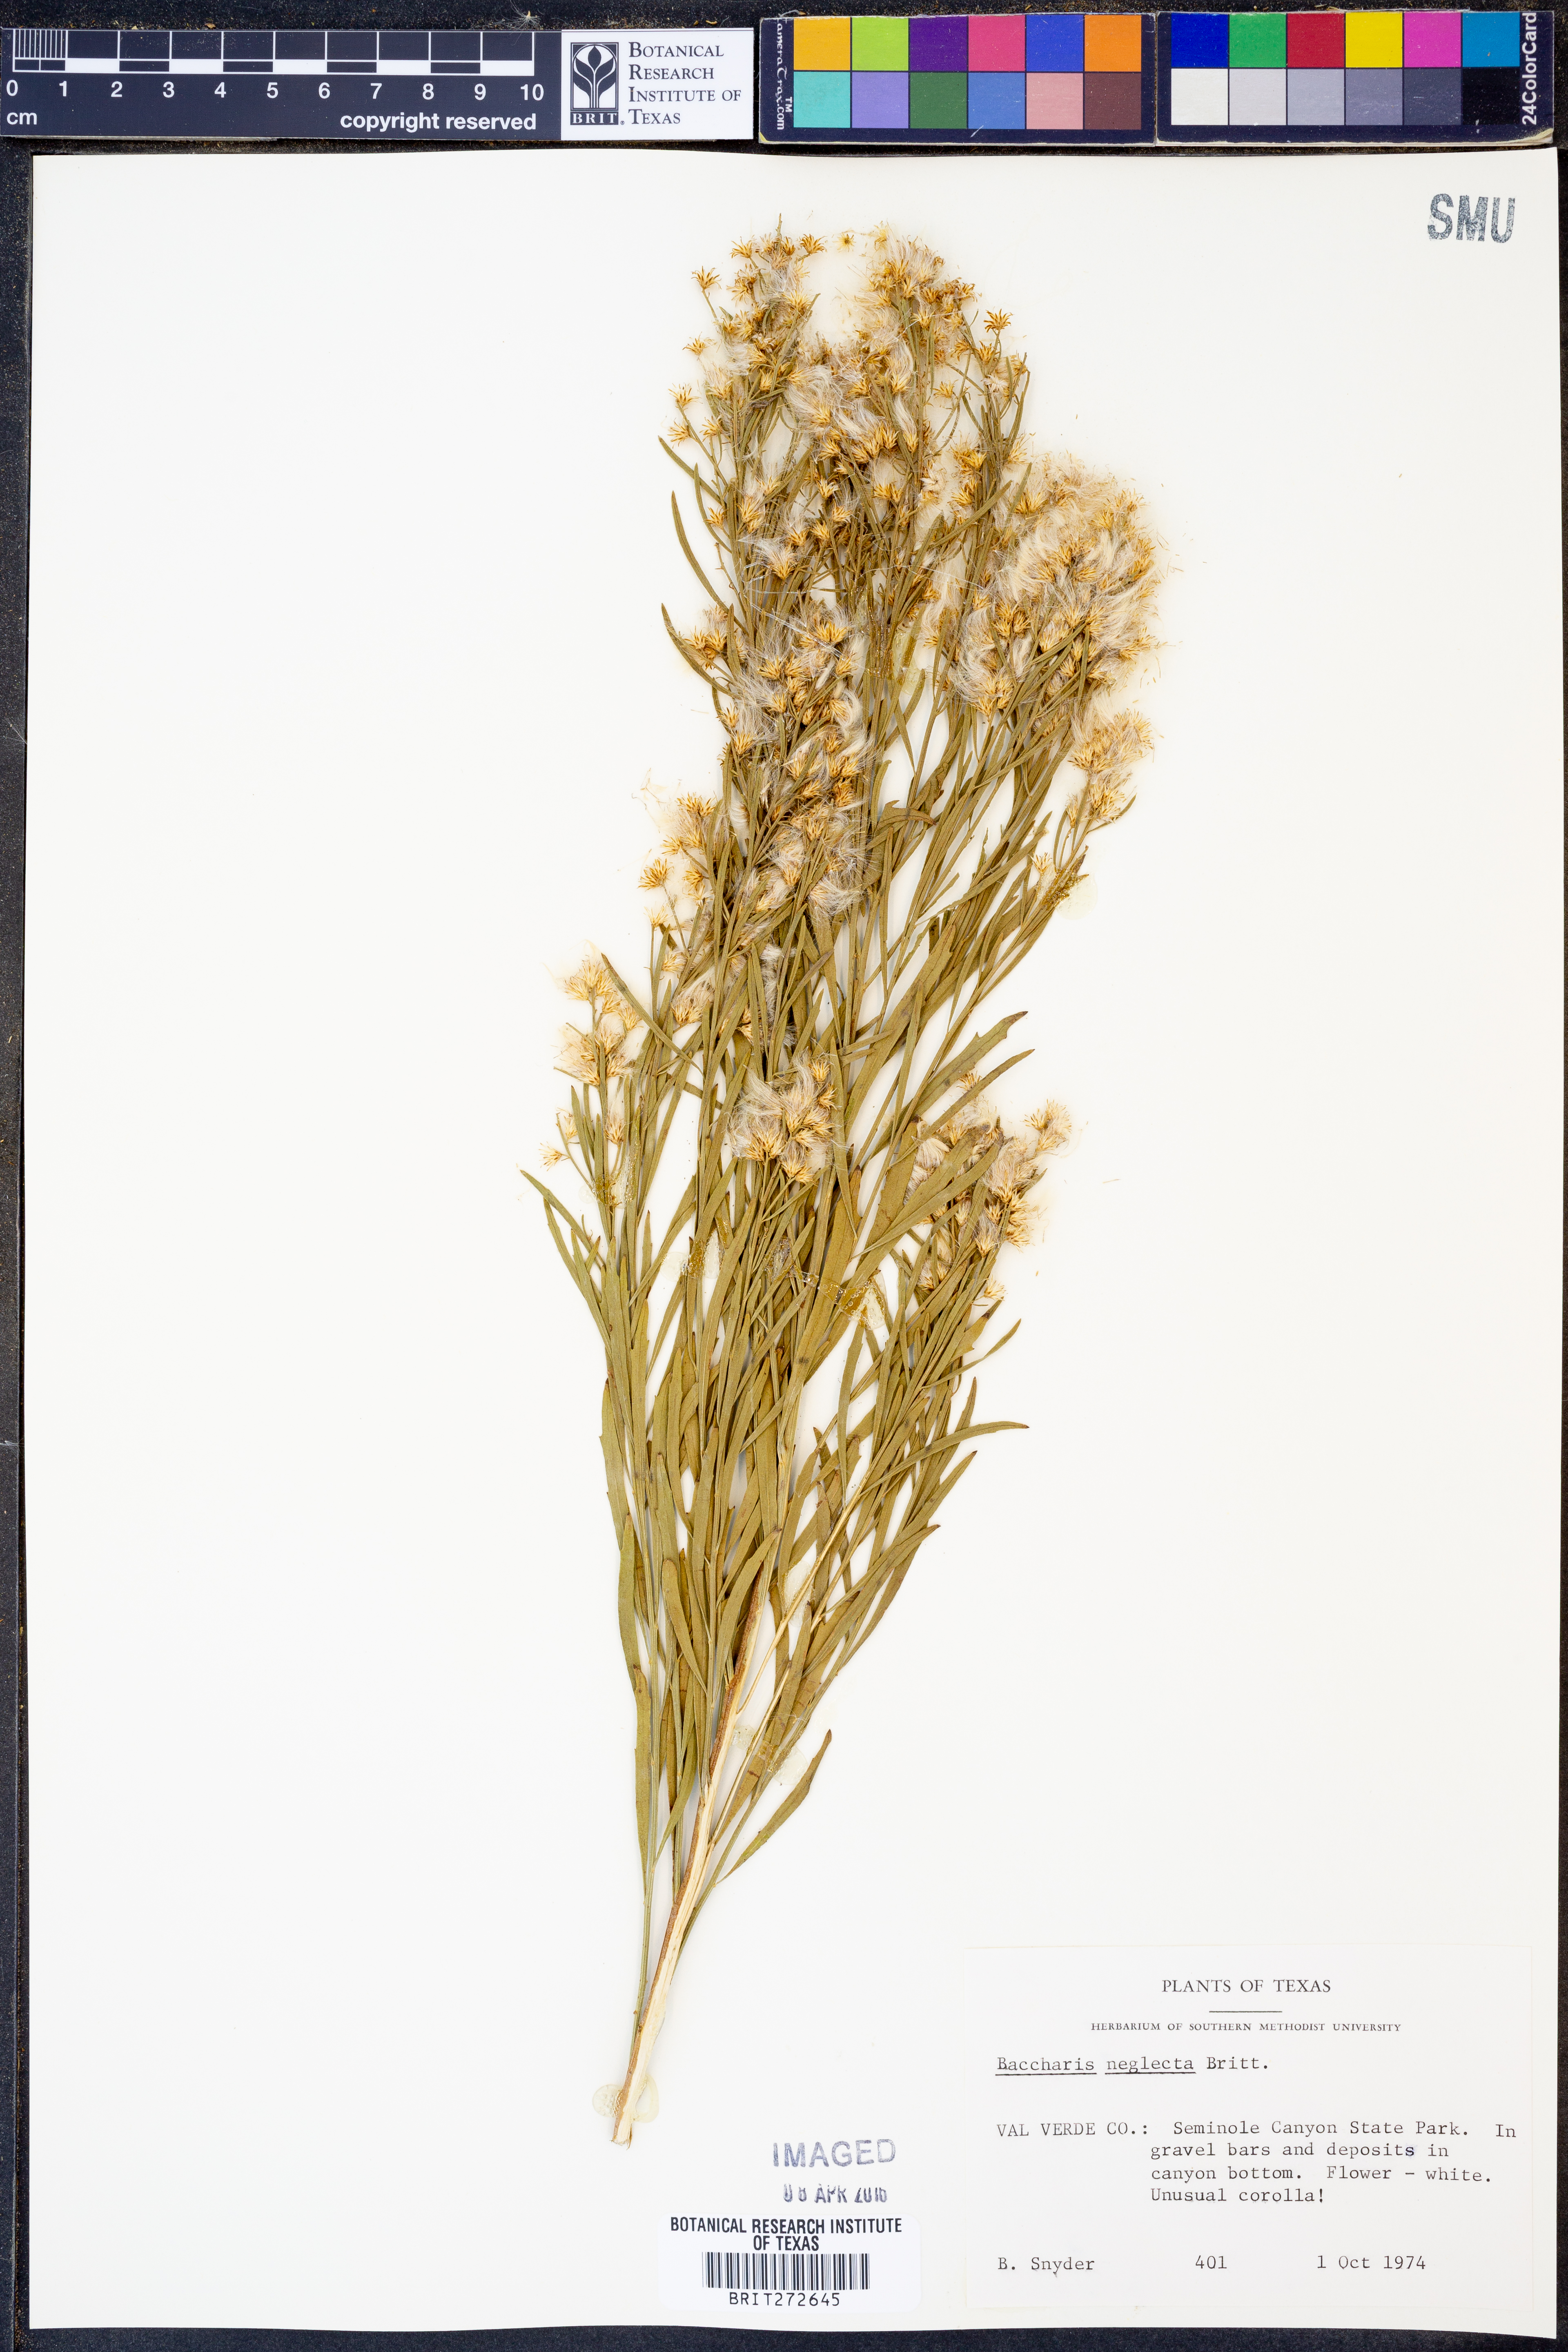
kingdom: Plantae
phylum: Tracheophyta
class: Magnoliopsida
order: Asterales
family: Asteraceae
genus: Baccharis
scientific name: Baccharis neglecta
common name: Roosevelt-weed
